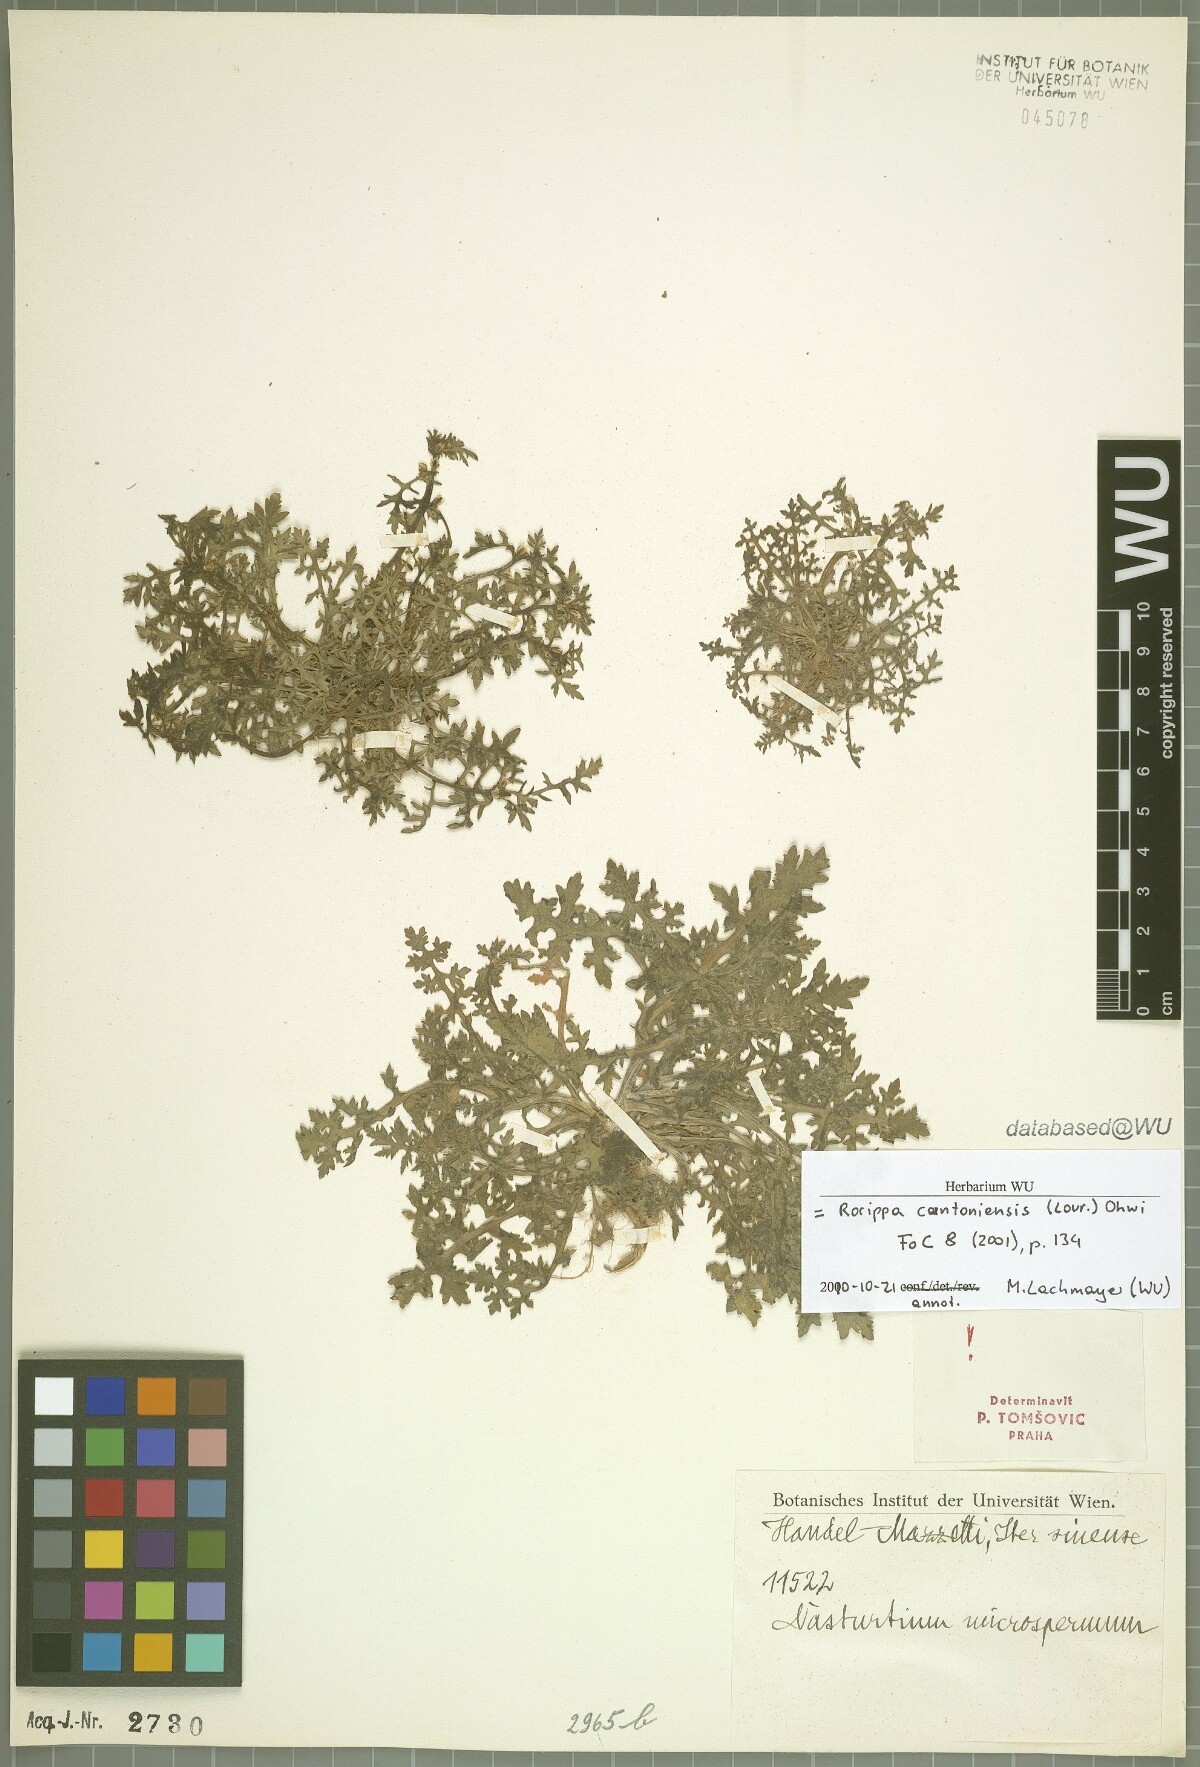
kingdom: Plantae
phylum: Tracheophyta
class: Magnoliopsida
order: Brassicales
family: Brassicaceae
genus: Rorippa
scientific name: Rorippa cantoniensis
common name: Chinese yellowcress
